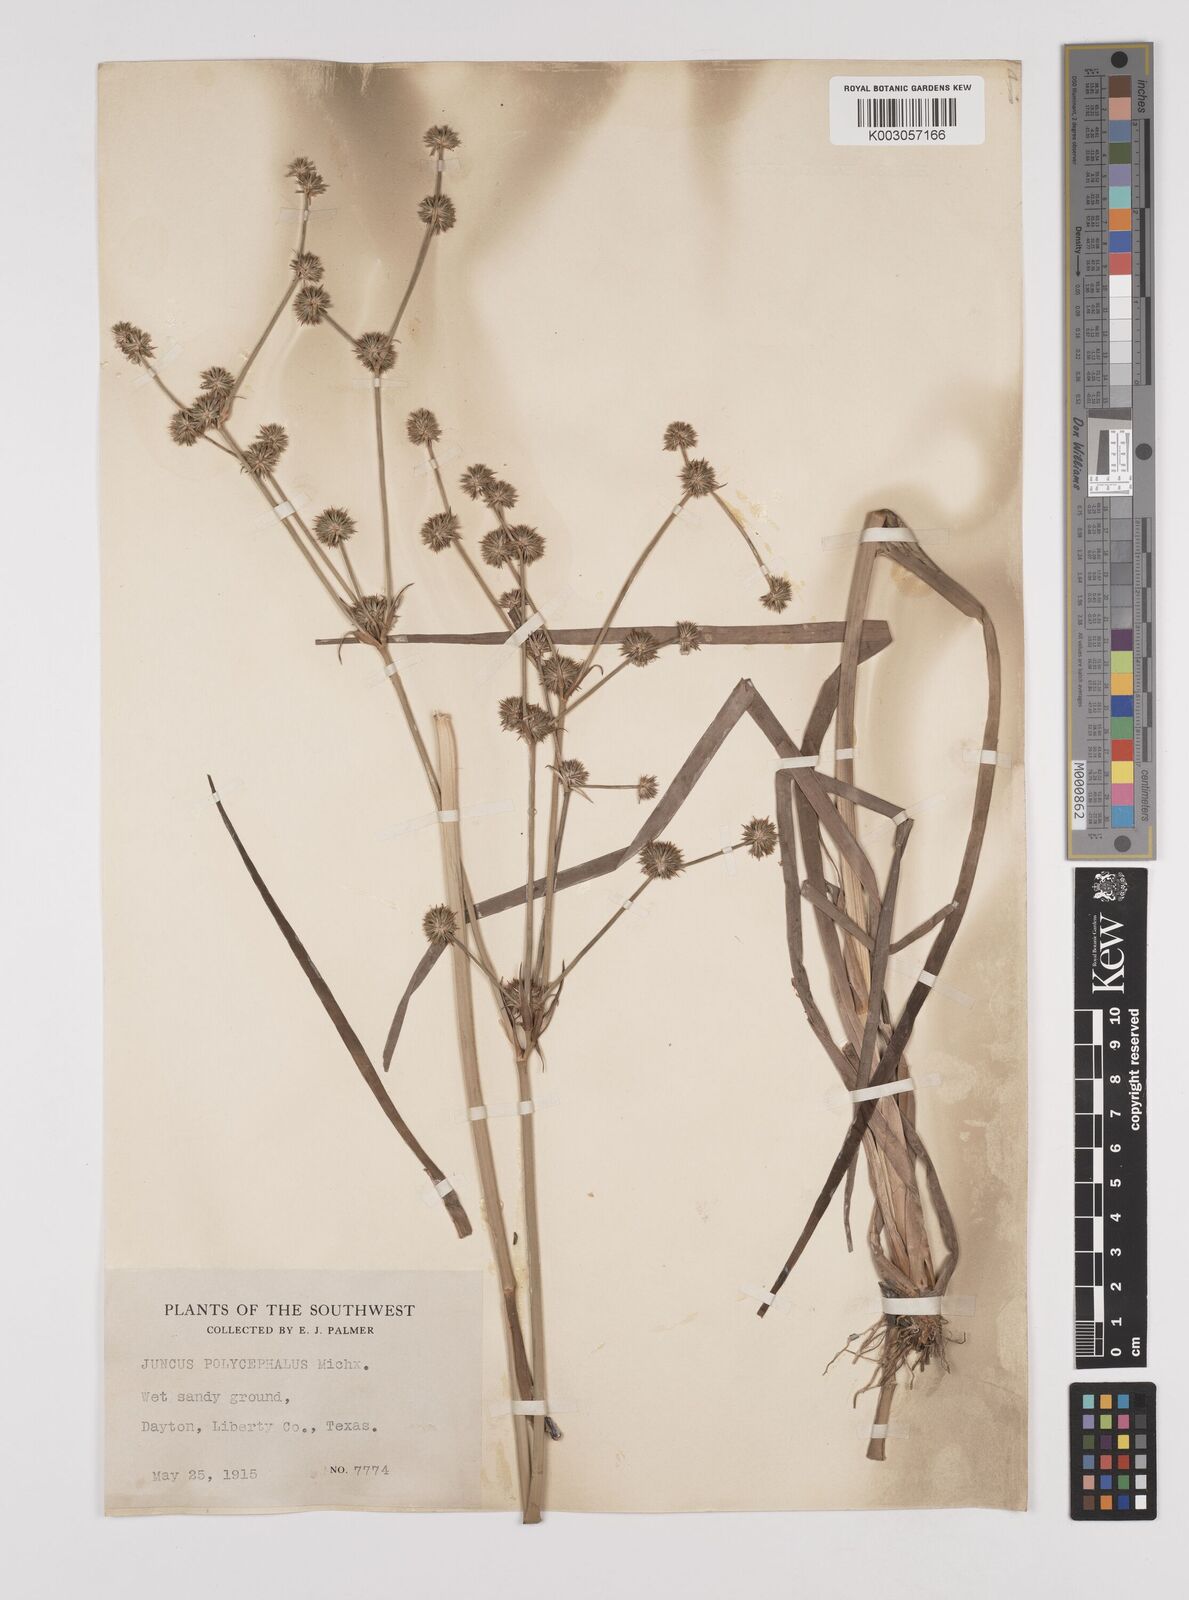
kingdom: Plantae
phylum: Tracheophyta
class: Liliopsida
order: Poales
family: Juncaceae
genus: Juncus
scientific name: Juncus articulatus
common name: Jointed rush
